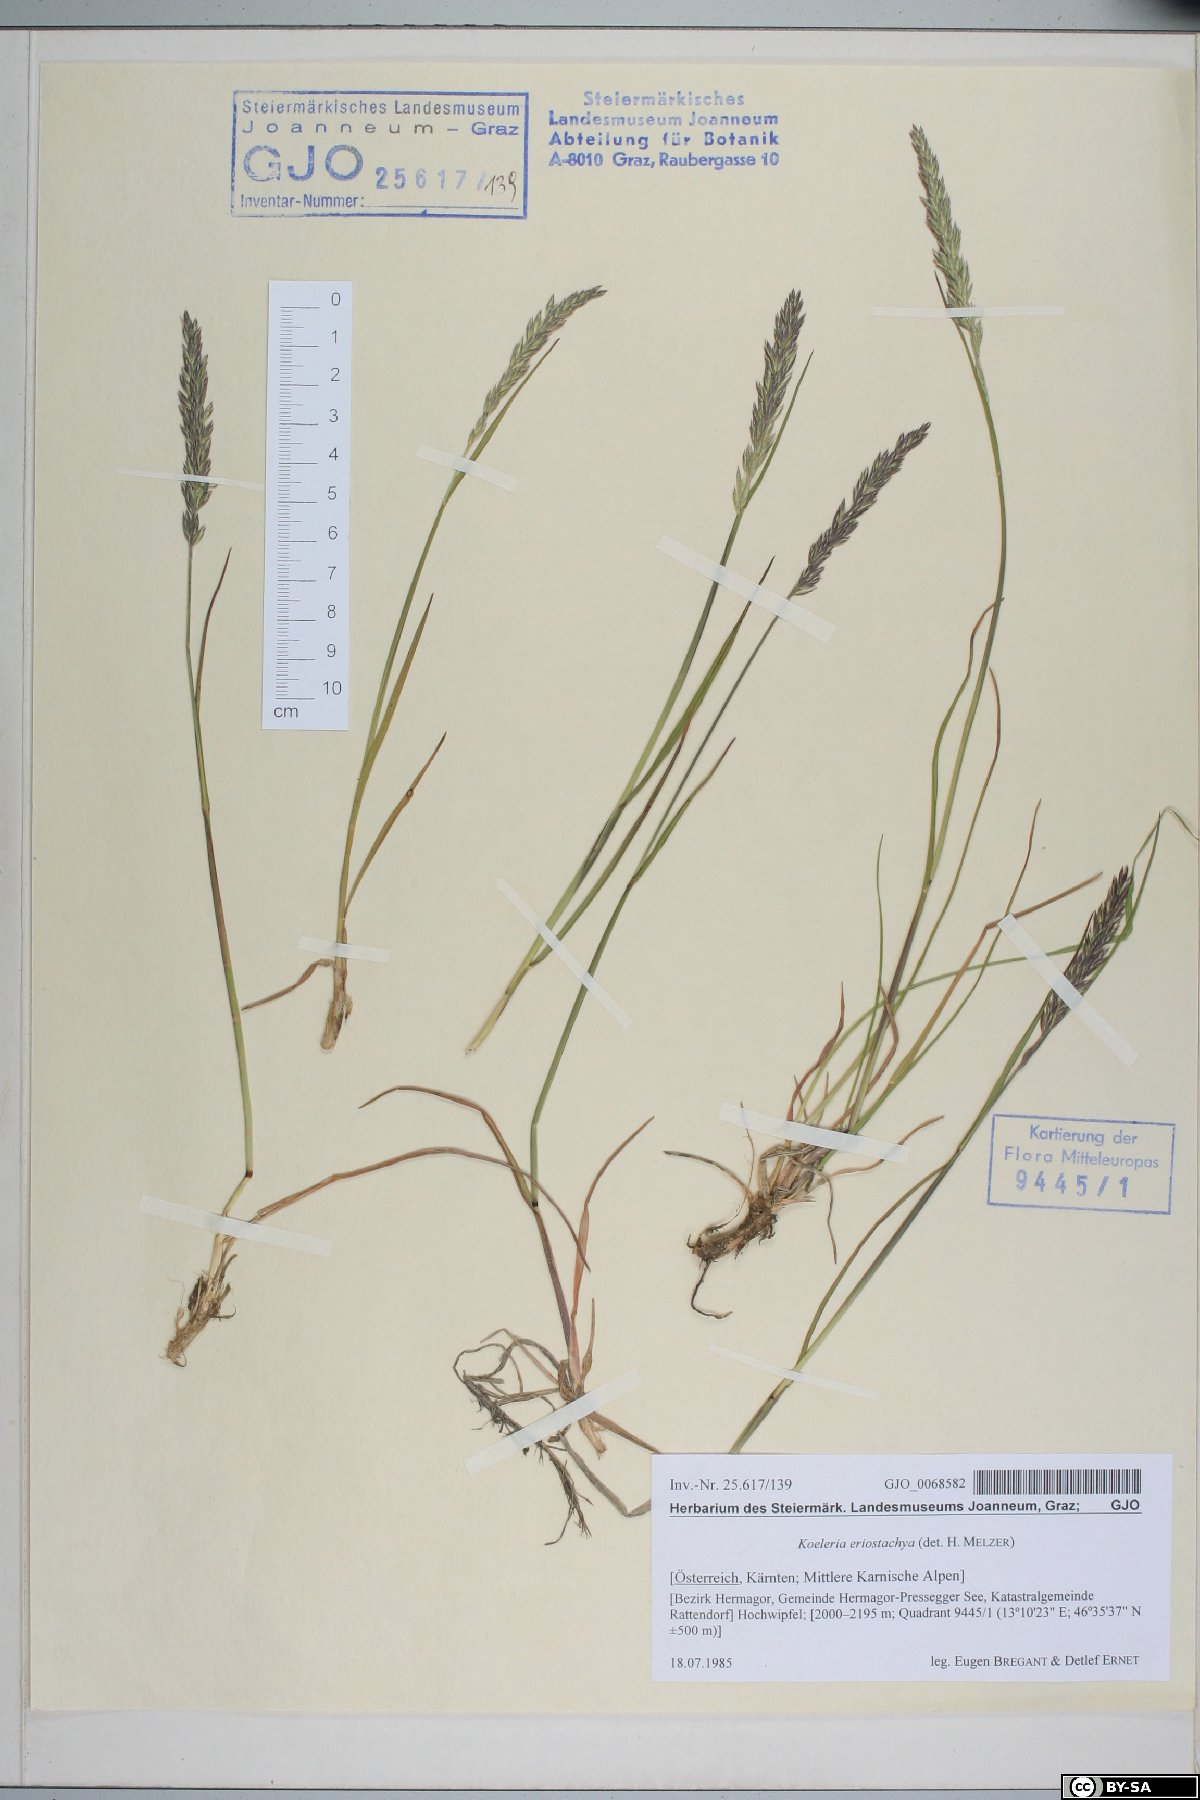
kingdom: Plantae
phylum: Tracheophyta
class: Liliopsida
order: Poales
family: Poaceae
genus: Koeleria
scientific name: Koeleria eriostachya
